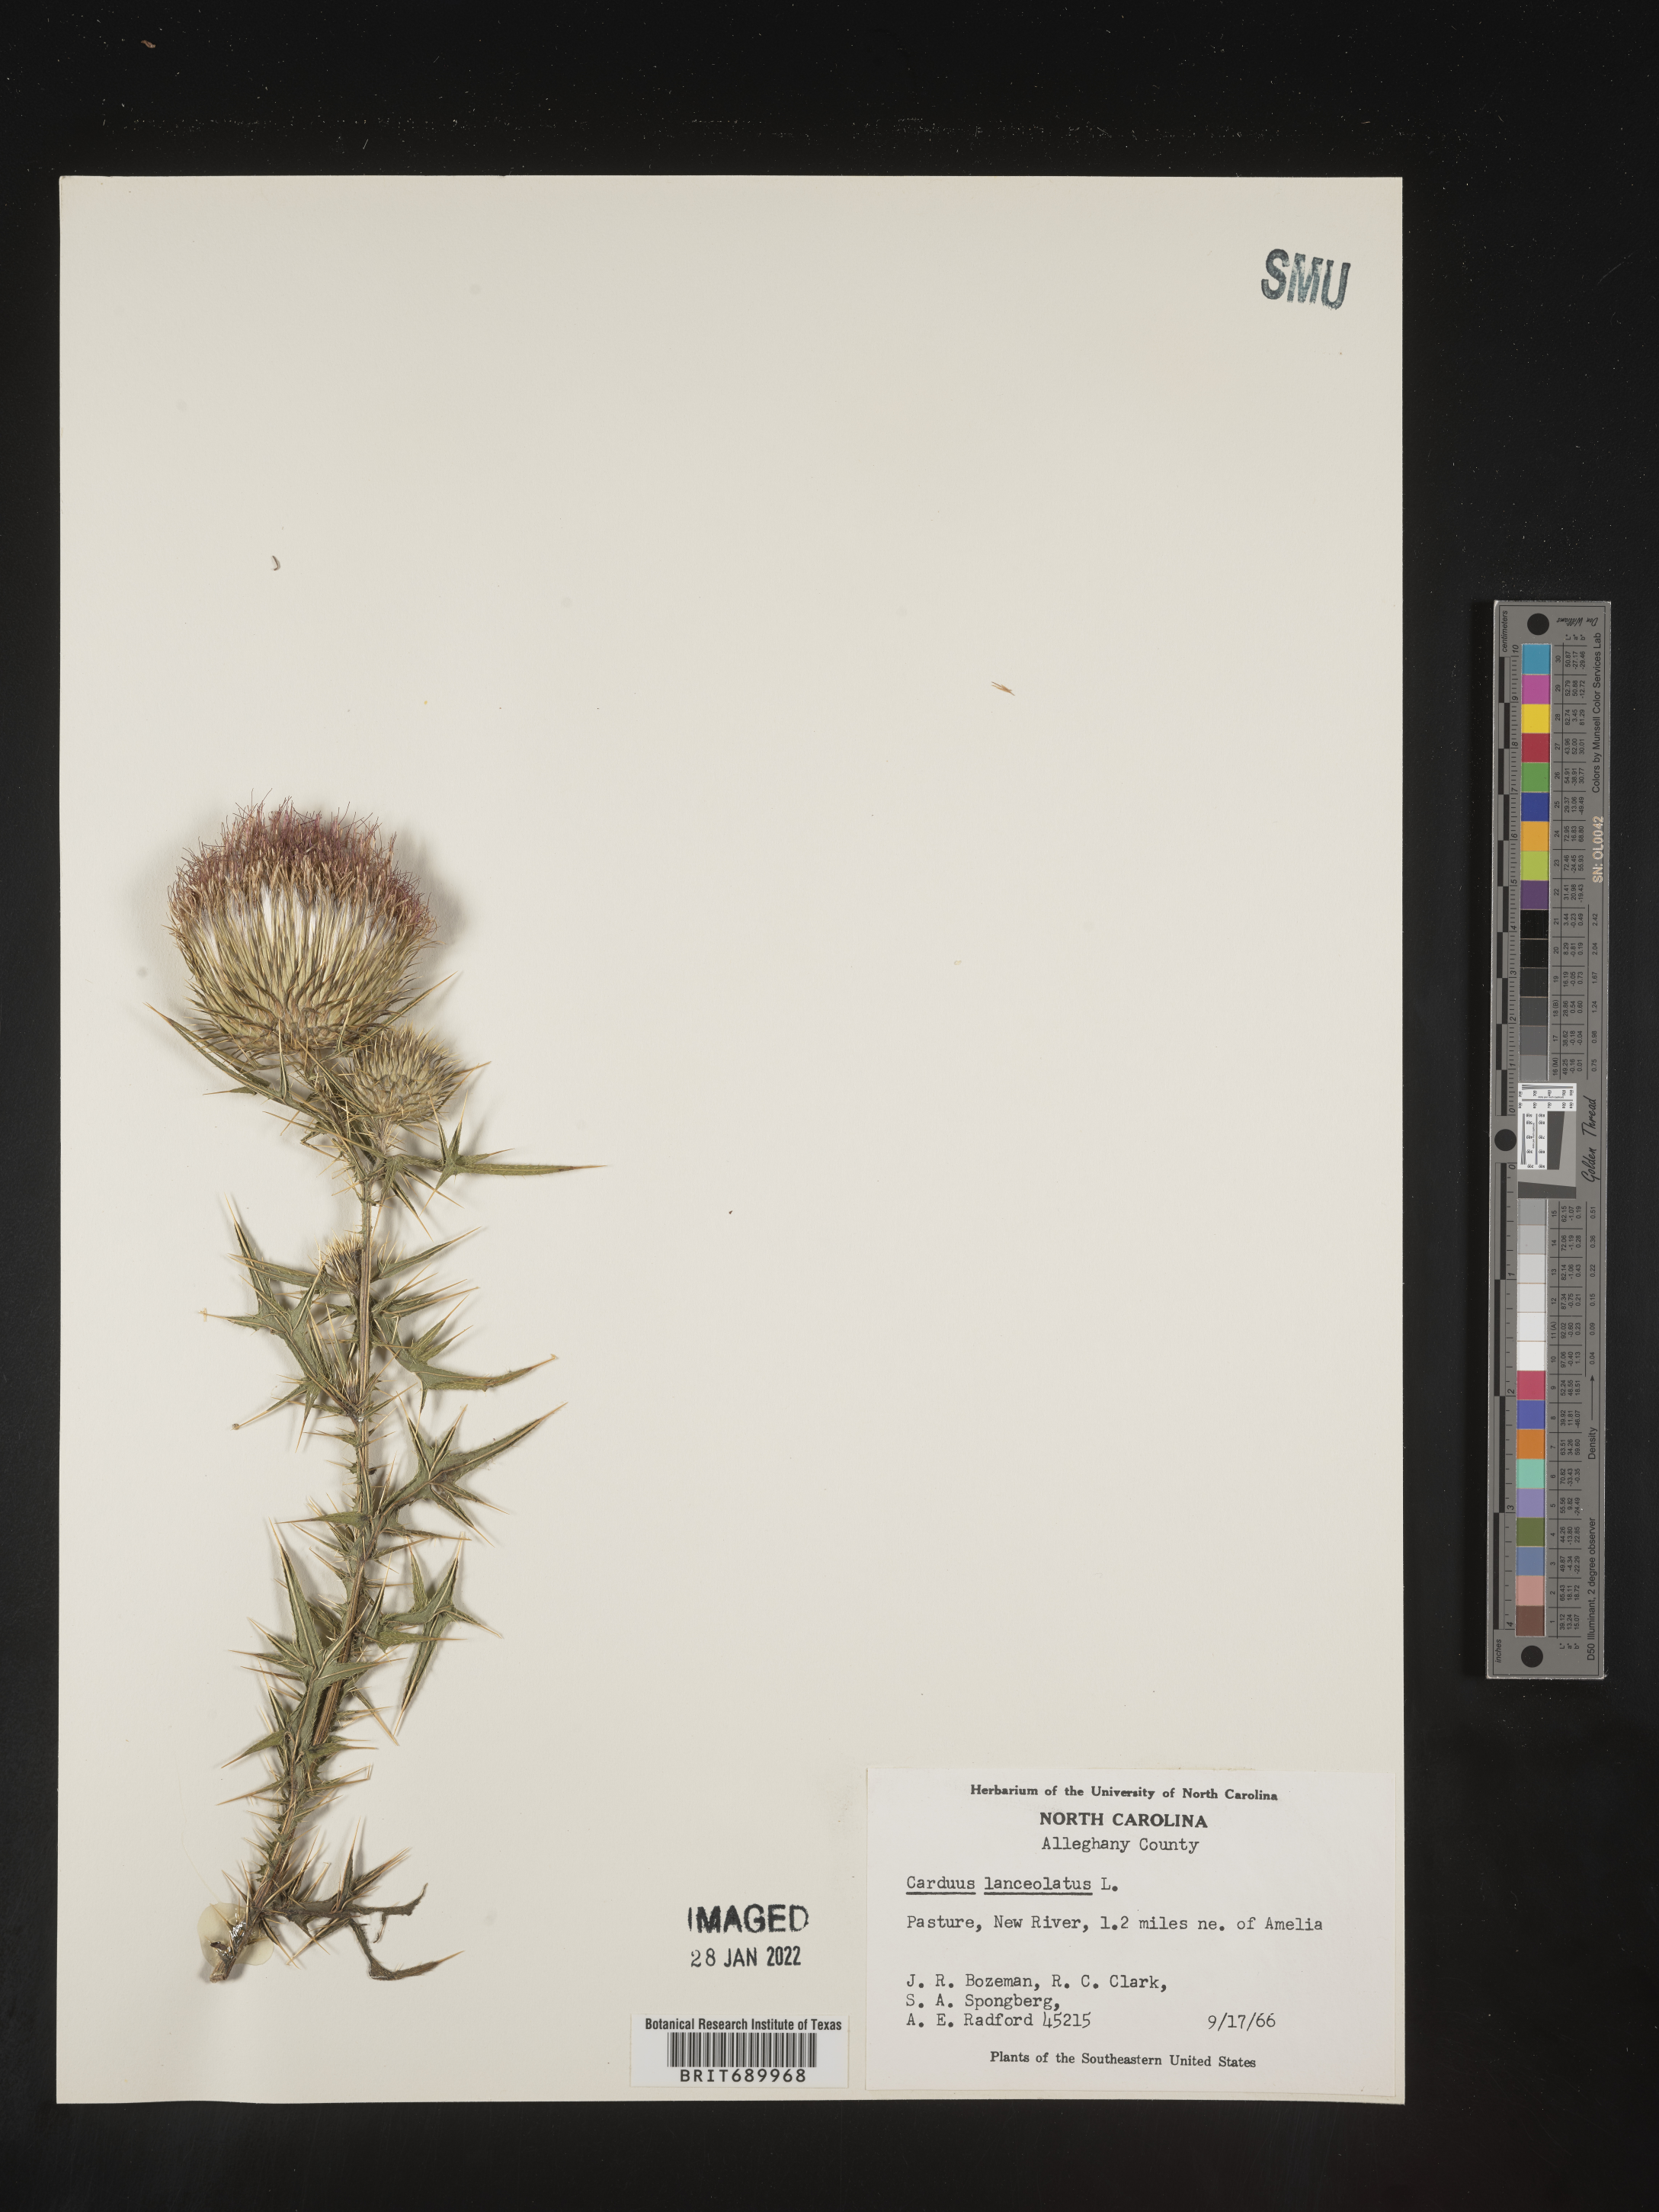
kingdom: Plantae
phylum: Tracheophyta
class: Magnoliopsida
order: Asterales
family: Asteraceae
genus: Cirsium
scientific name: Cirsium vulgare
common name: Bull thistle
